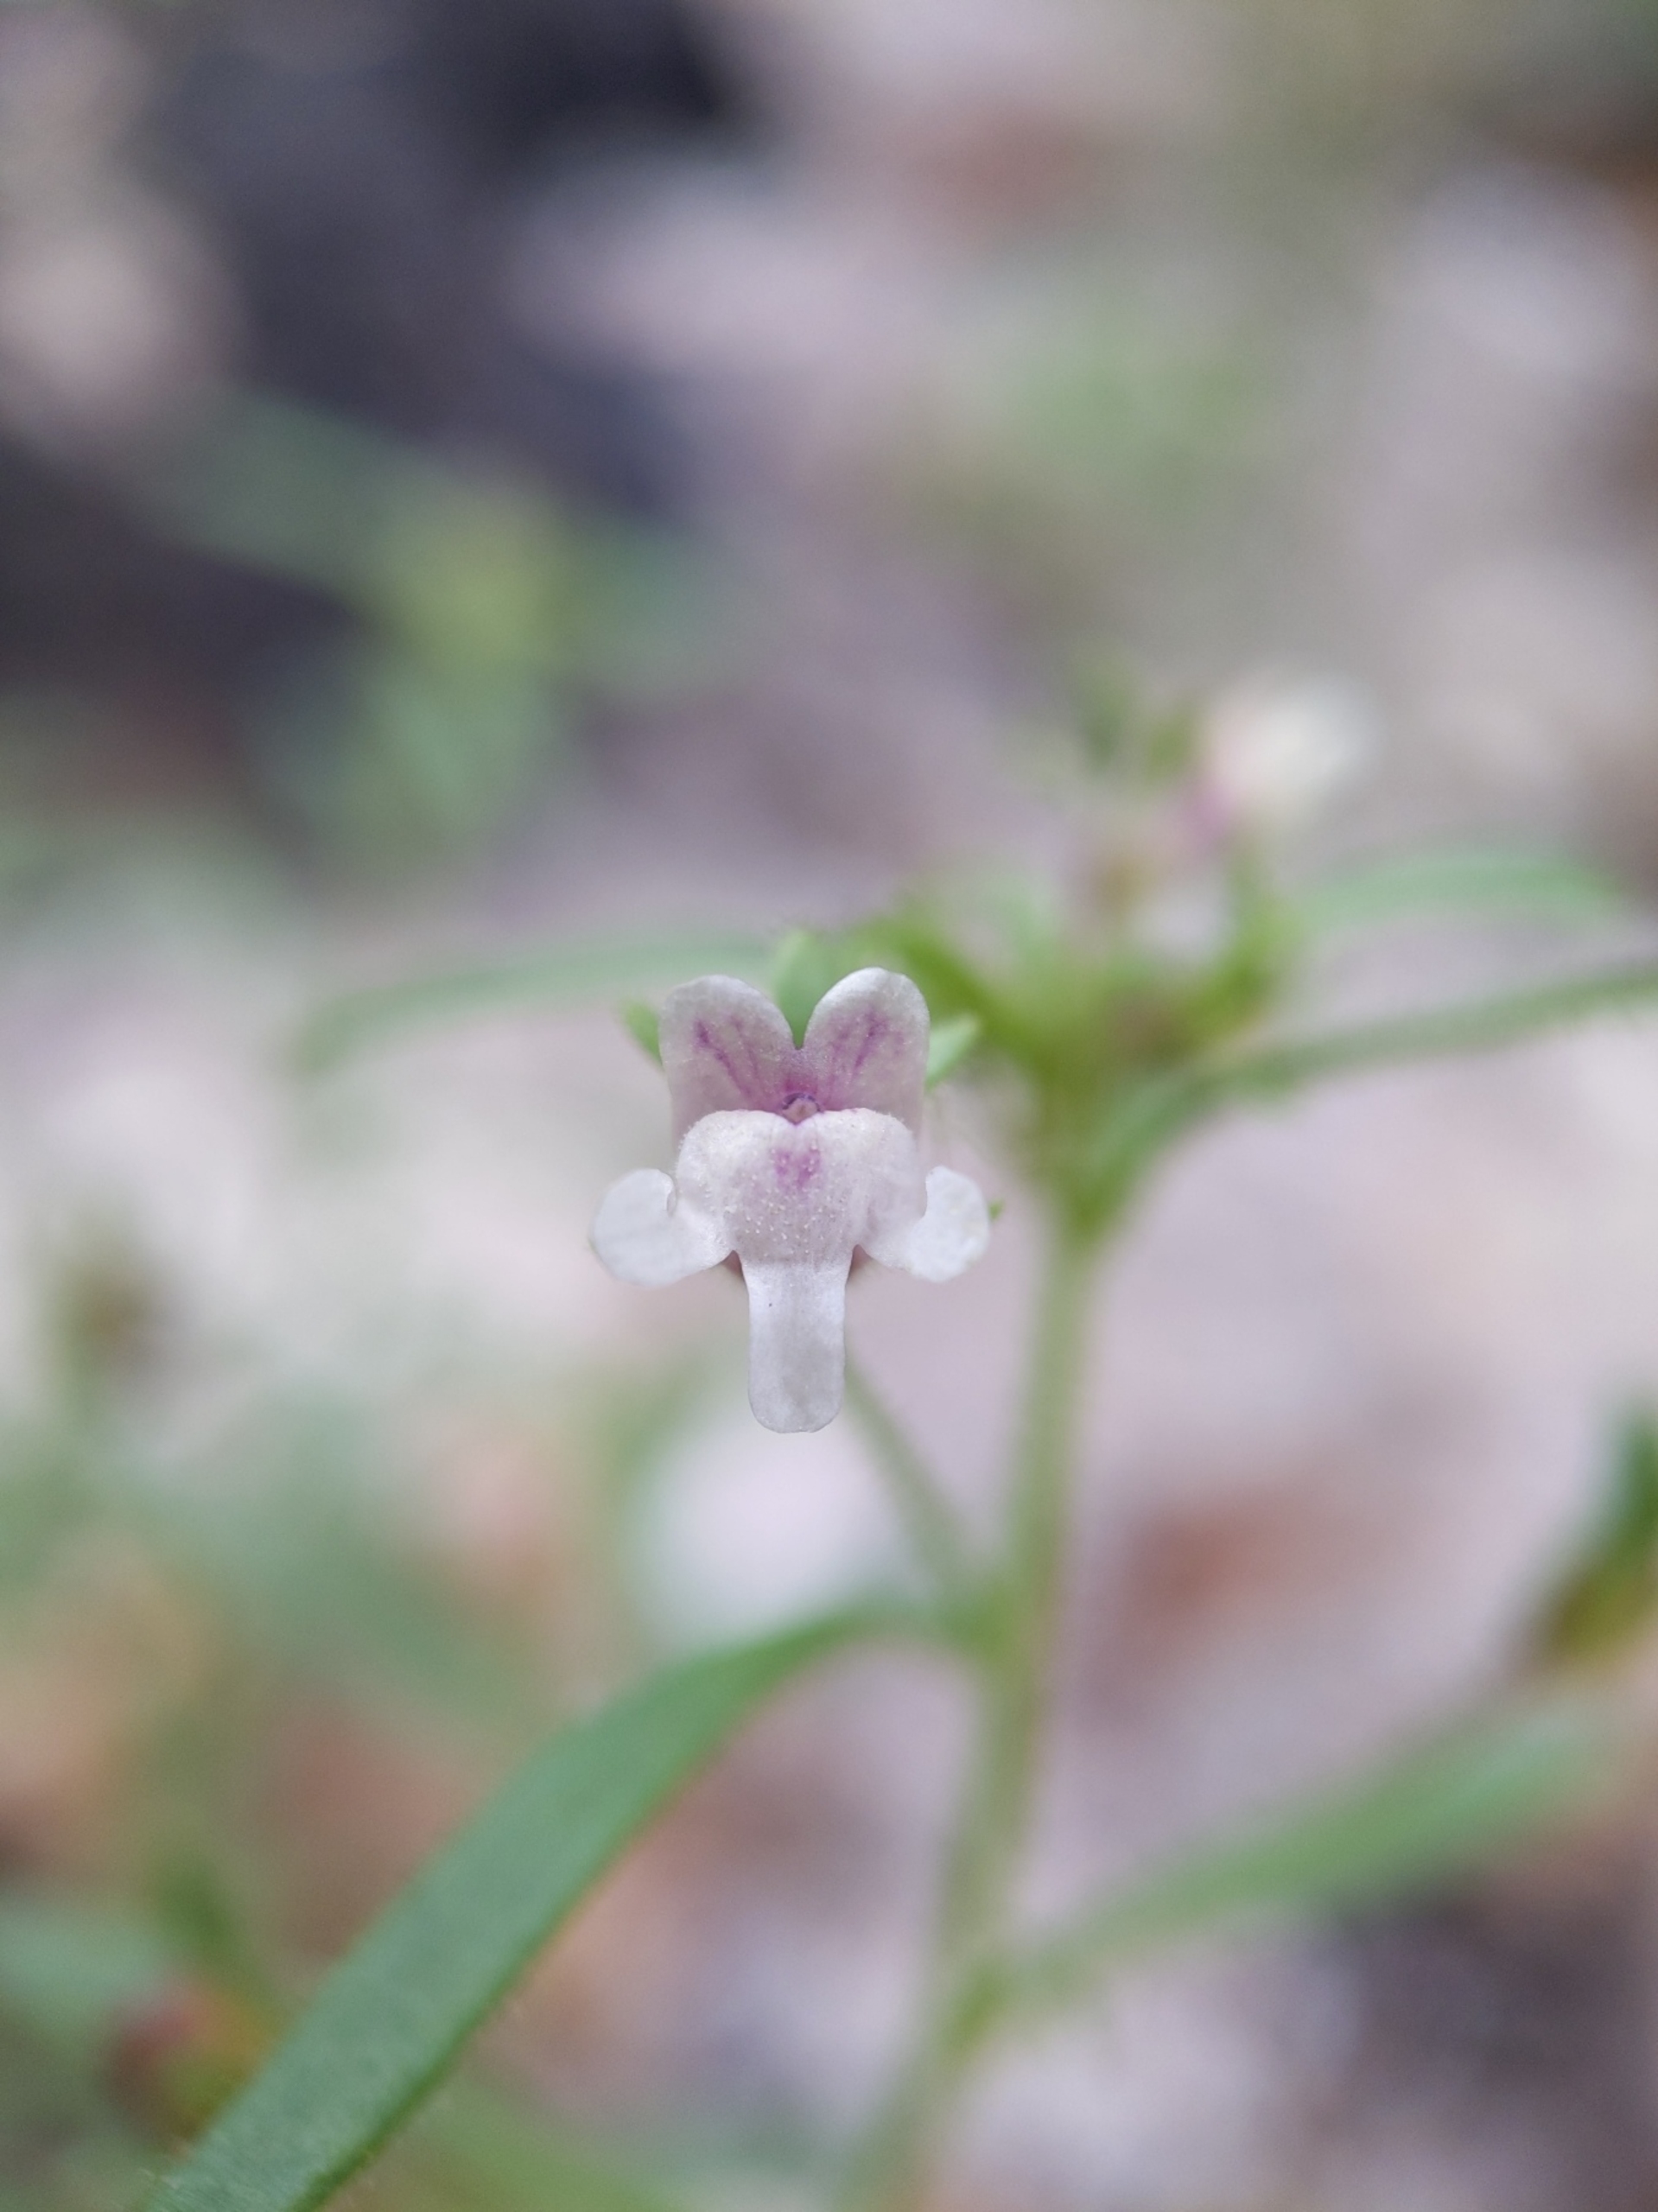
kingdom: Plantae
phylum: Tracheophyta
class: Magnoliopsida
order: Lamiales
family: Plantaginaceae
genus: Chaenorhinum
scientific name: Chaenorhinum minus
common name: Liden torskemund
